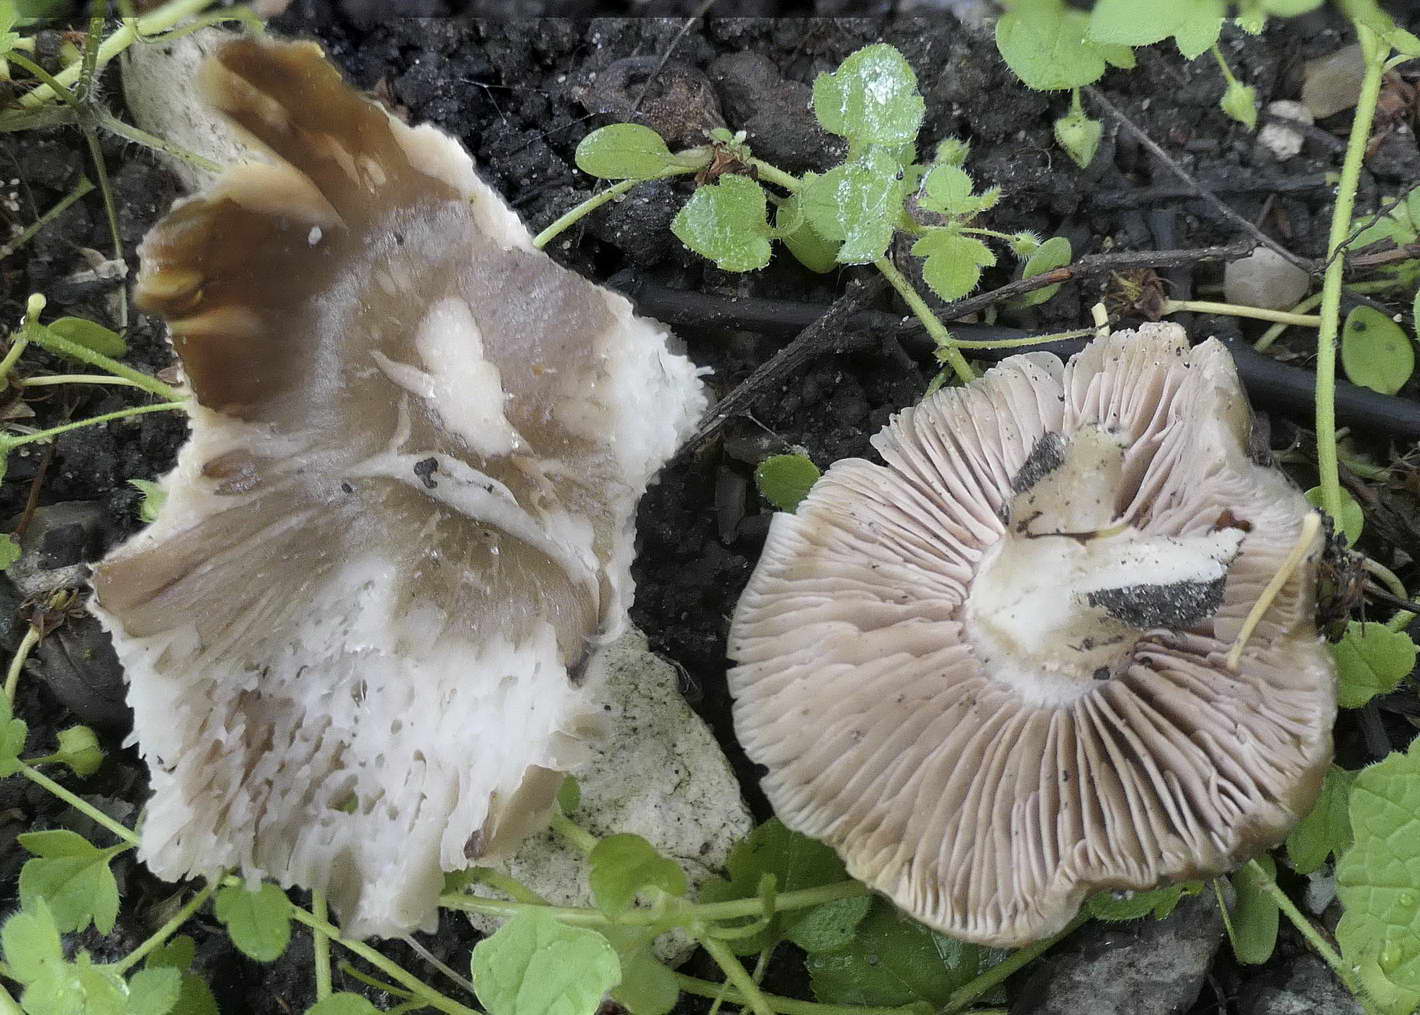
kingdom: Fungi
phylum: Basidiomycota
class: Agaricomycetes
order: Agaricales
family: Entolomataceae
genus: Entoloma
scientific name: Entoloma clypeatum
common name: flammet rødblad
